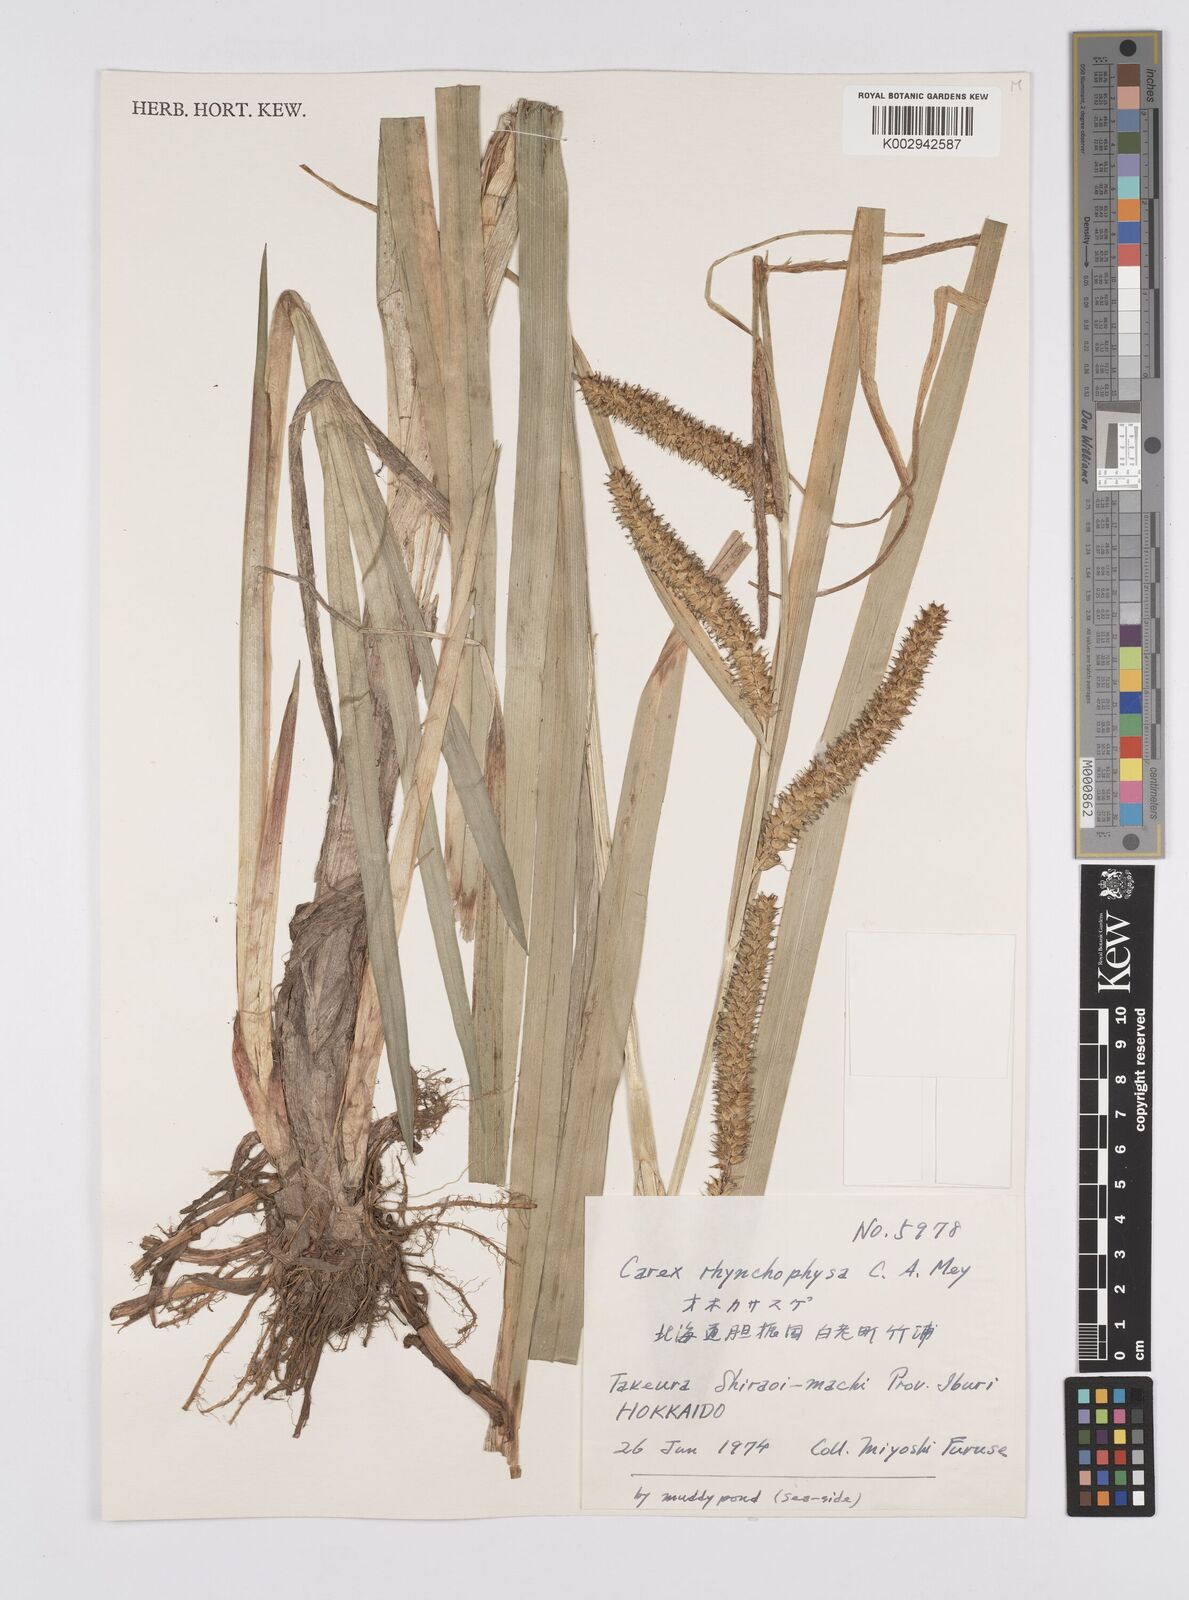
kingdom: Plantae
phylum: Tracheophyta
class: Liliopsida
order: Poales
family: Cyperaceae
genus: Carex
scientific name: Carex utriculata
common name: Beaked sedge
